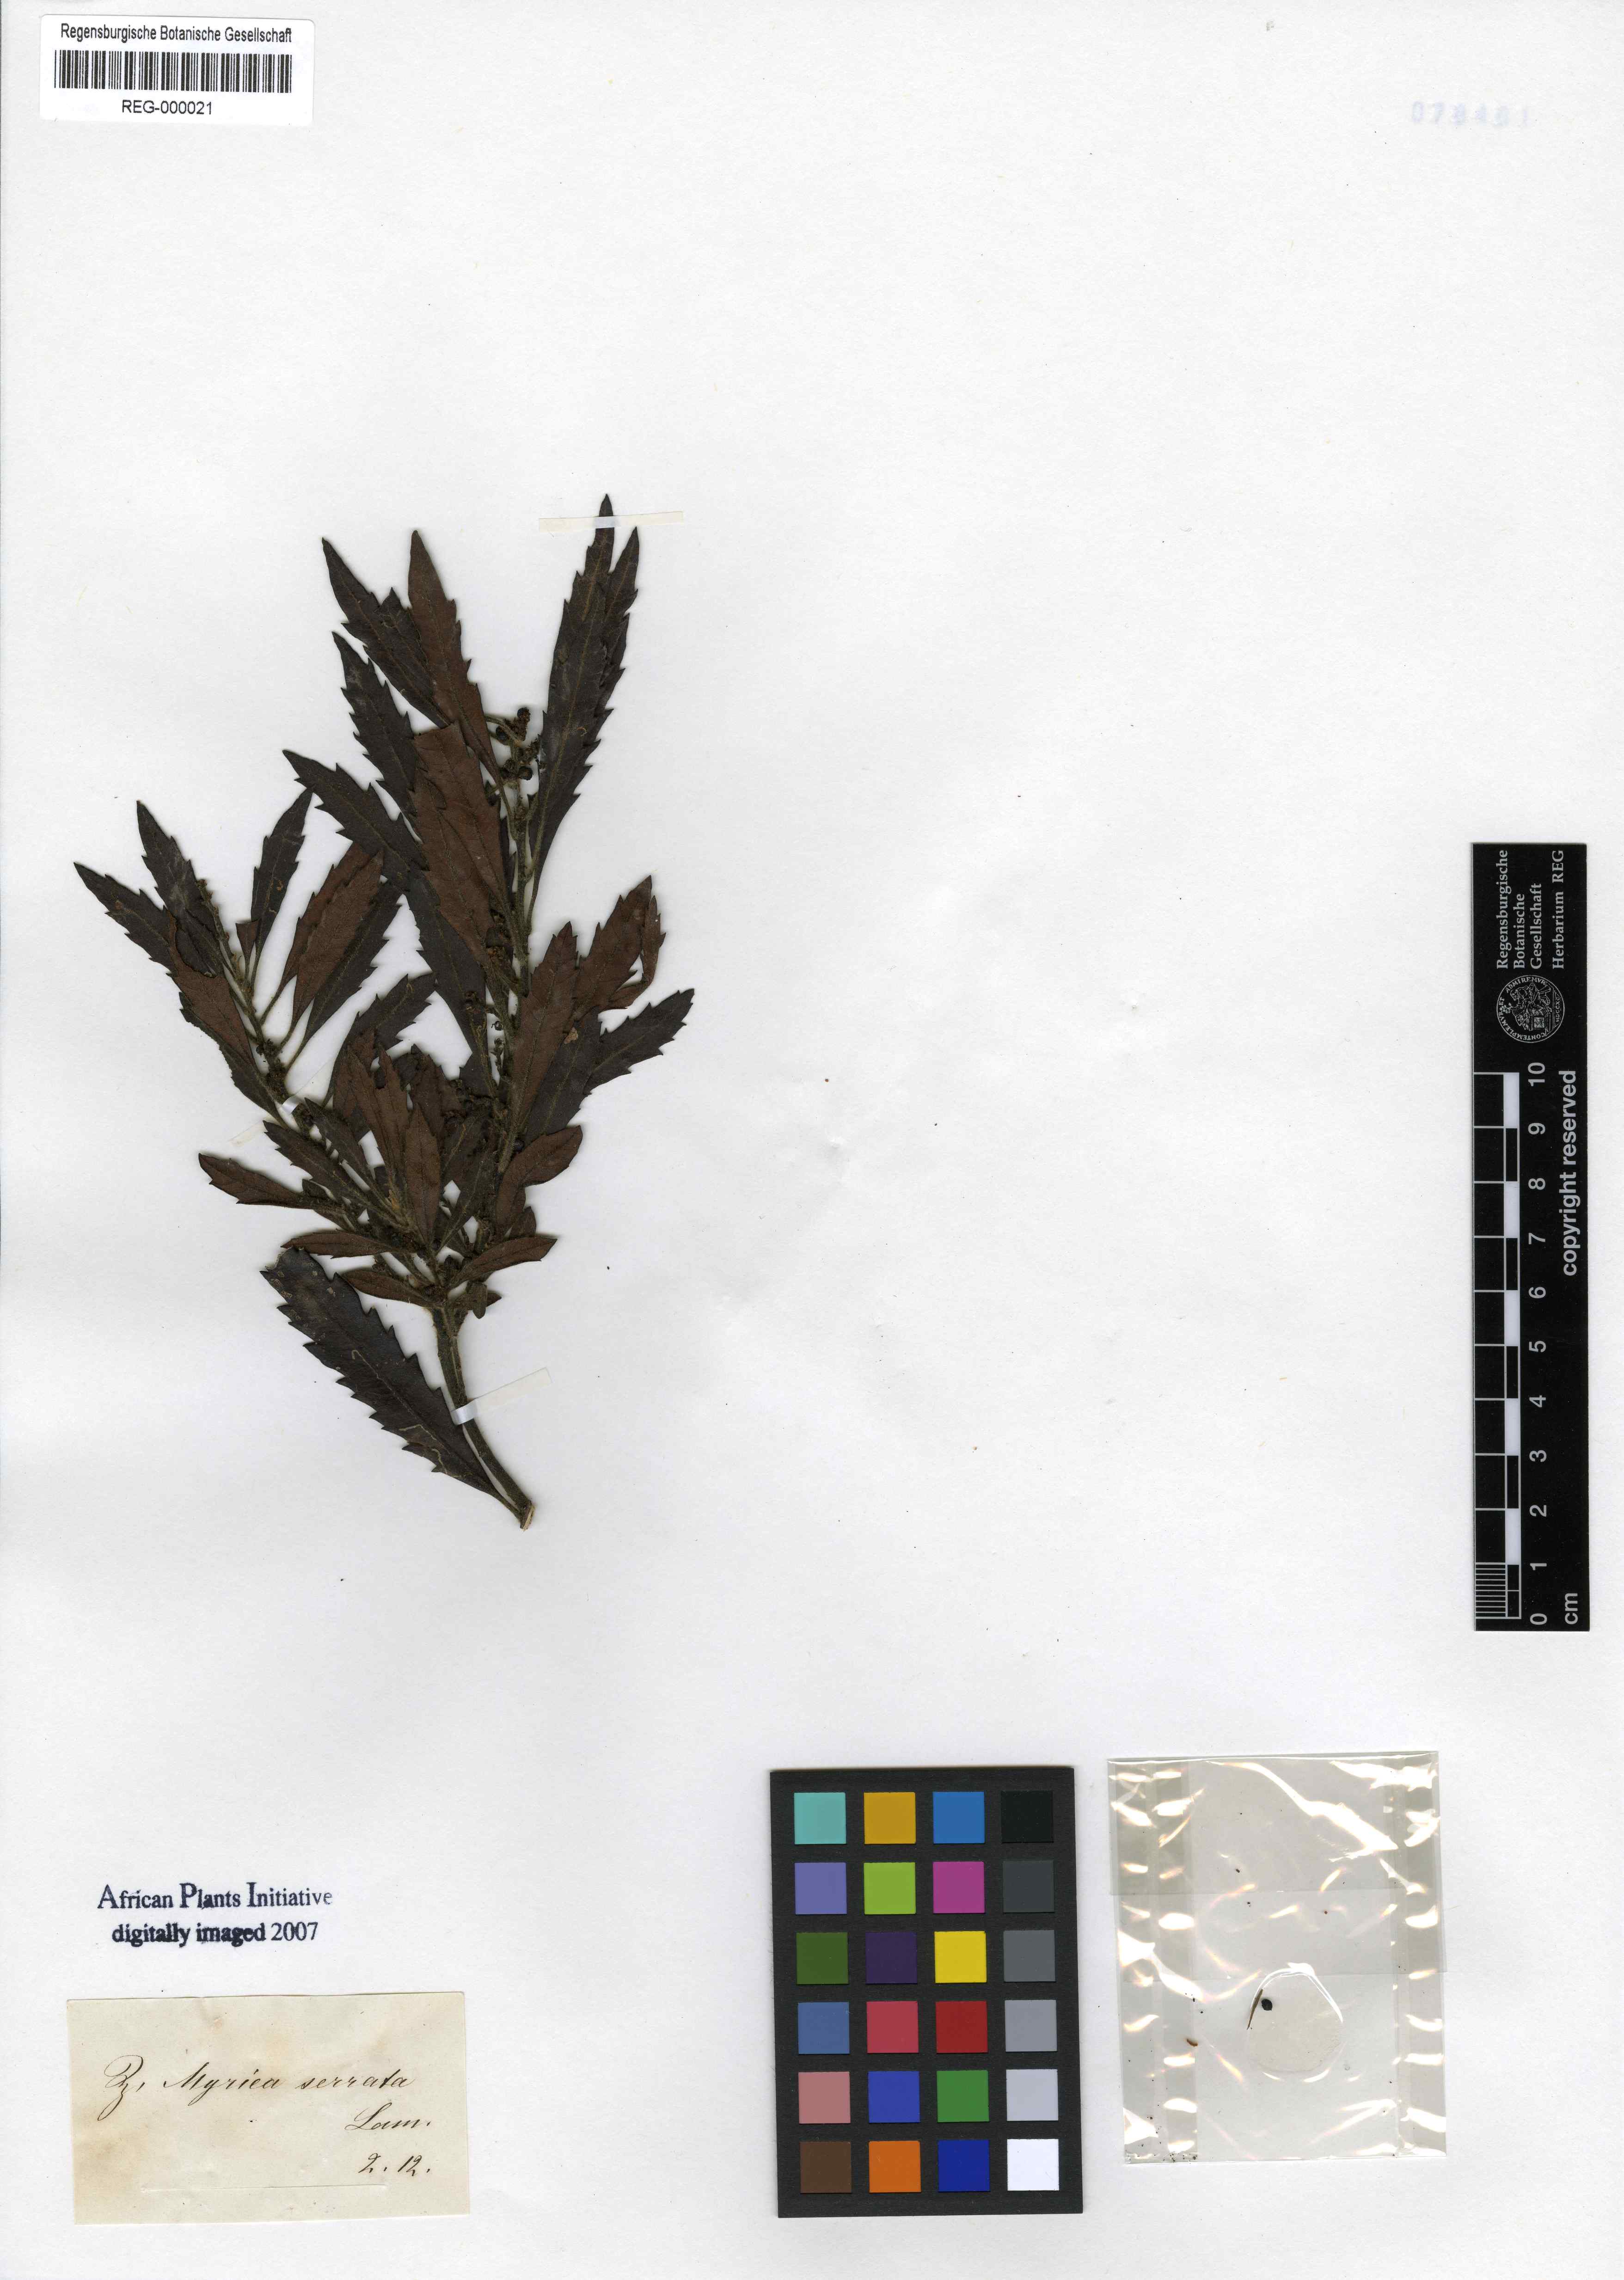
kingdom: Plantae
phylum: Tracheophyta
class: Magnoliopsida
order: Fagales
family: Myricaceae
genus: Morella
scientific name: Morella serrata
